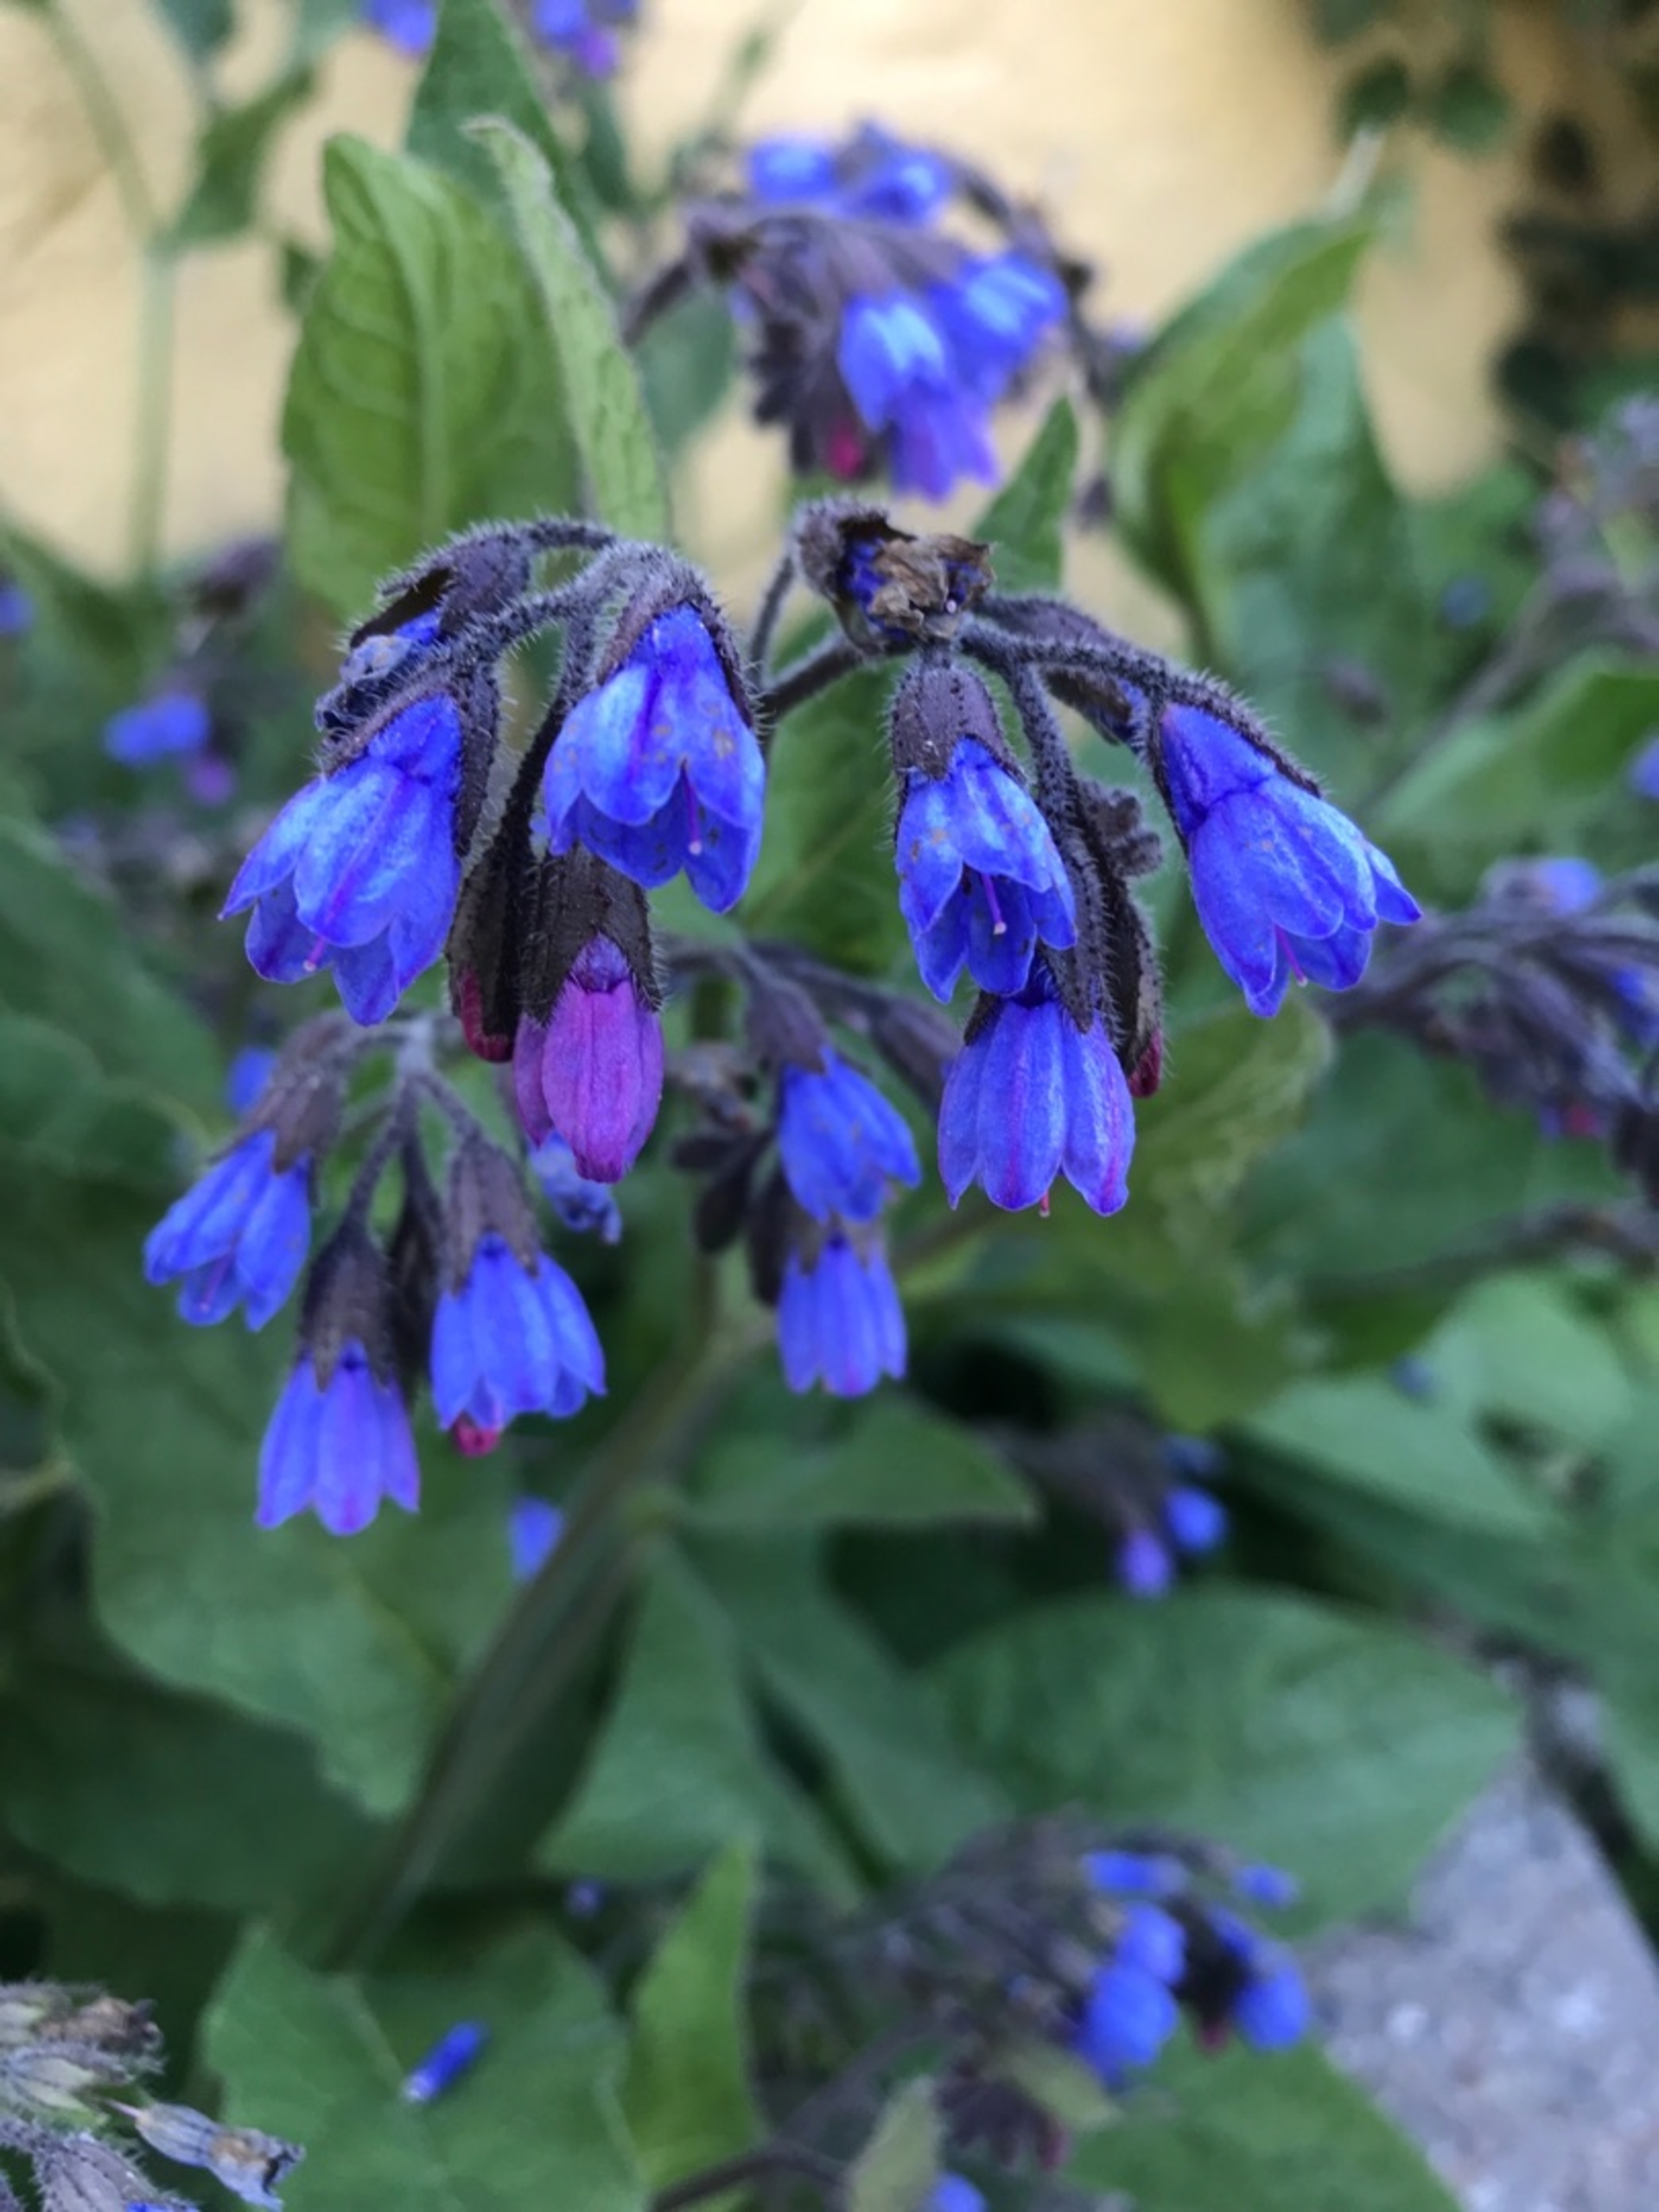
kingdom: Plantae
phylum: Tracheophyta
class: Magnoliopsida
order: Boraginales
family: Boraginaceae
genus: Symphytum
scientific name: Symphytum caucasicum
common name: Kaukasisk kulsukker
